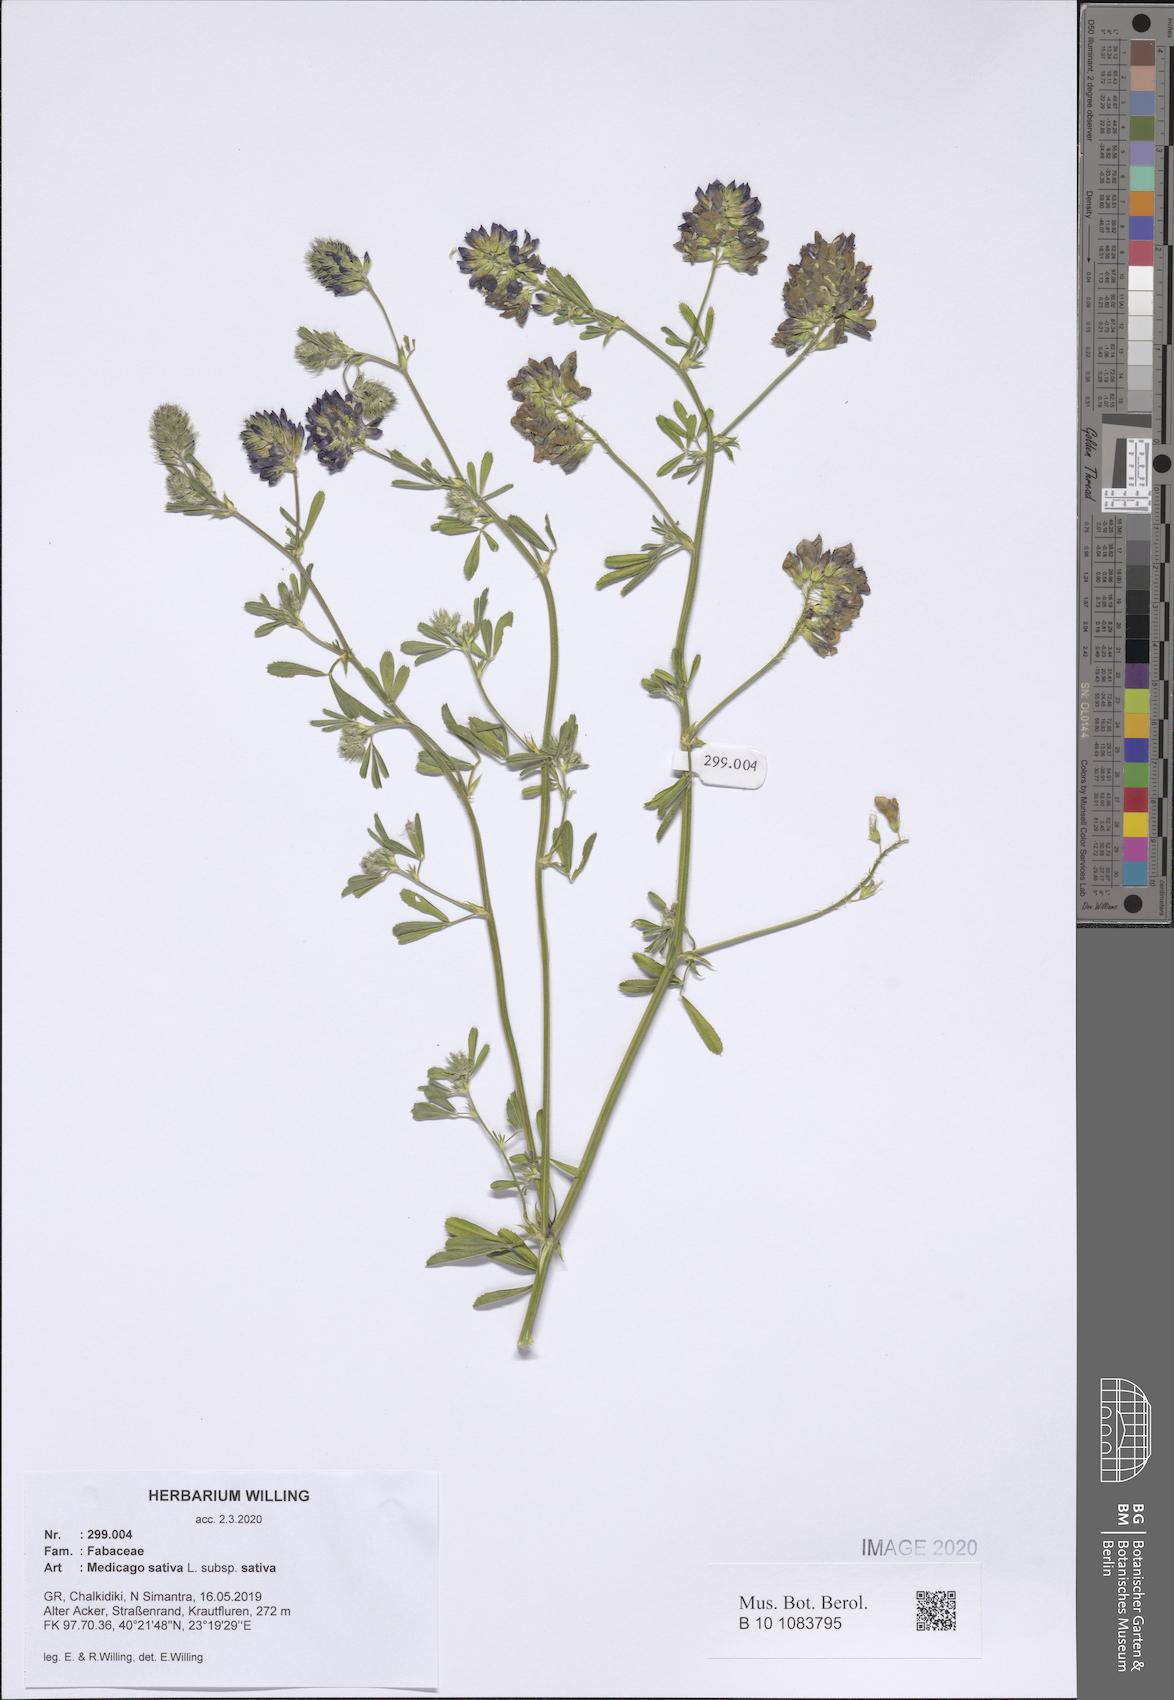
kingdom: Plantae
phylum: Tracheophyta
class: Magnoliopsida
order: Fabales
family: Fabaceae
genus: Medicago
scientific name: Medicago sativa
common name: Alfalfa
